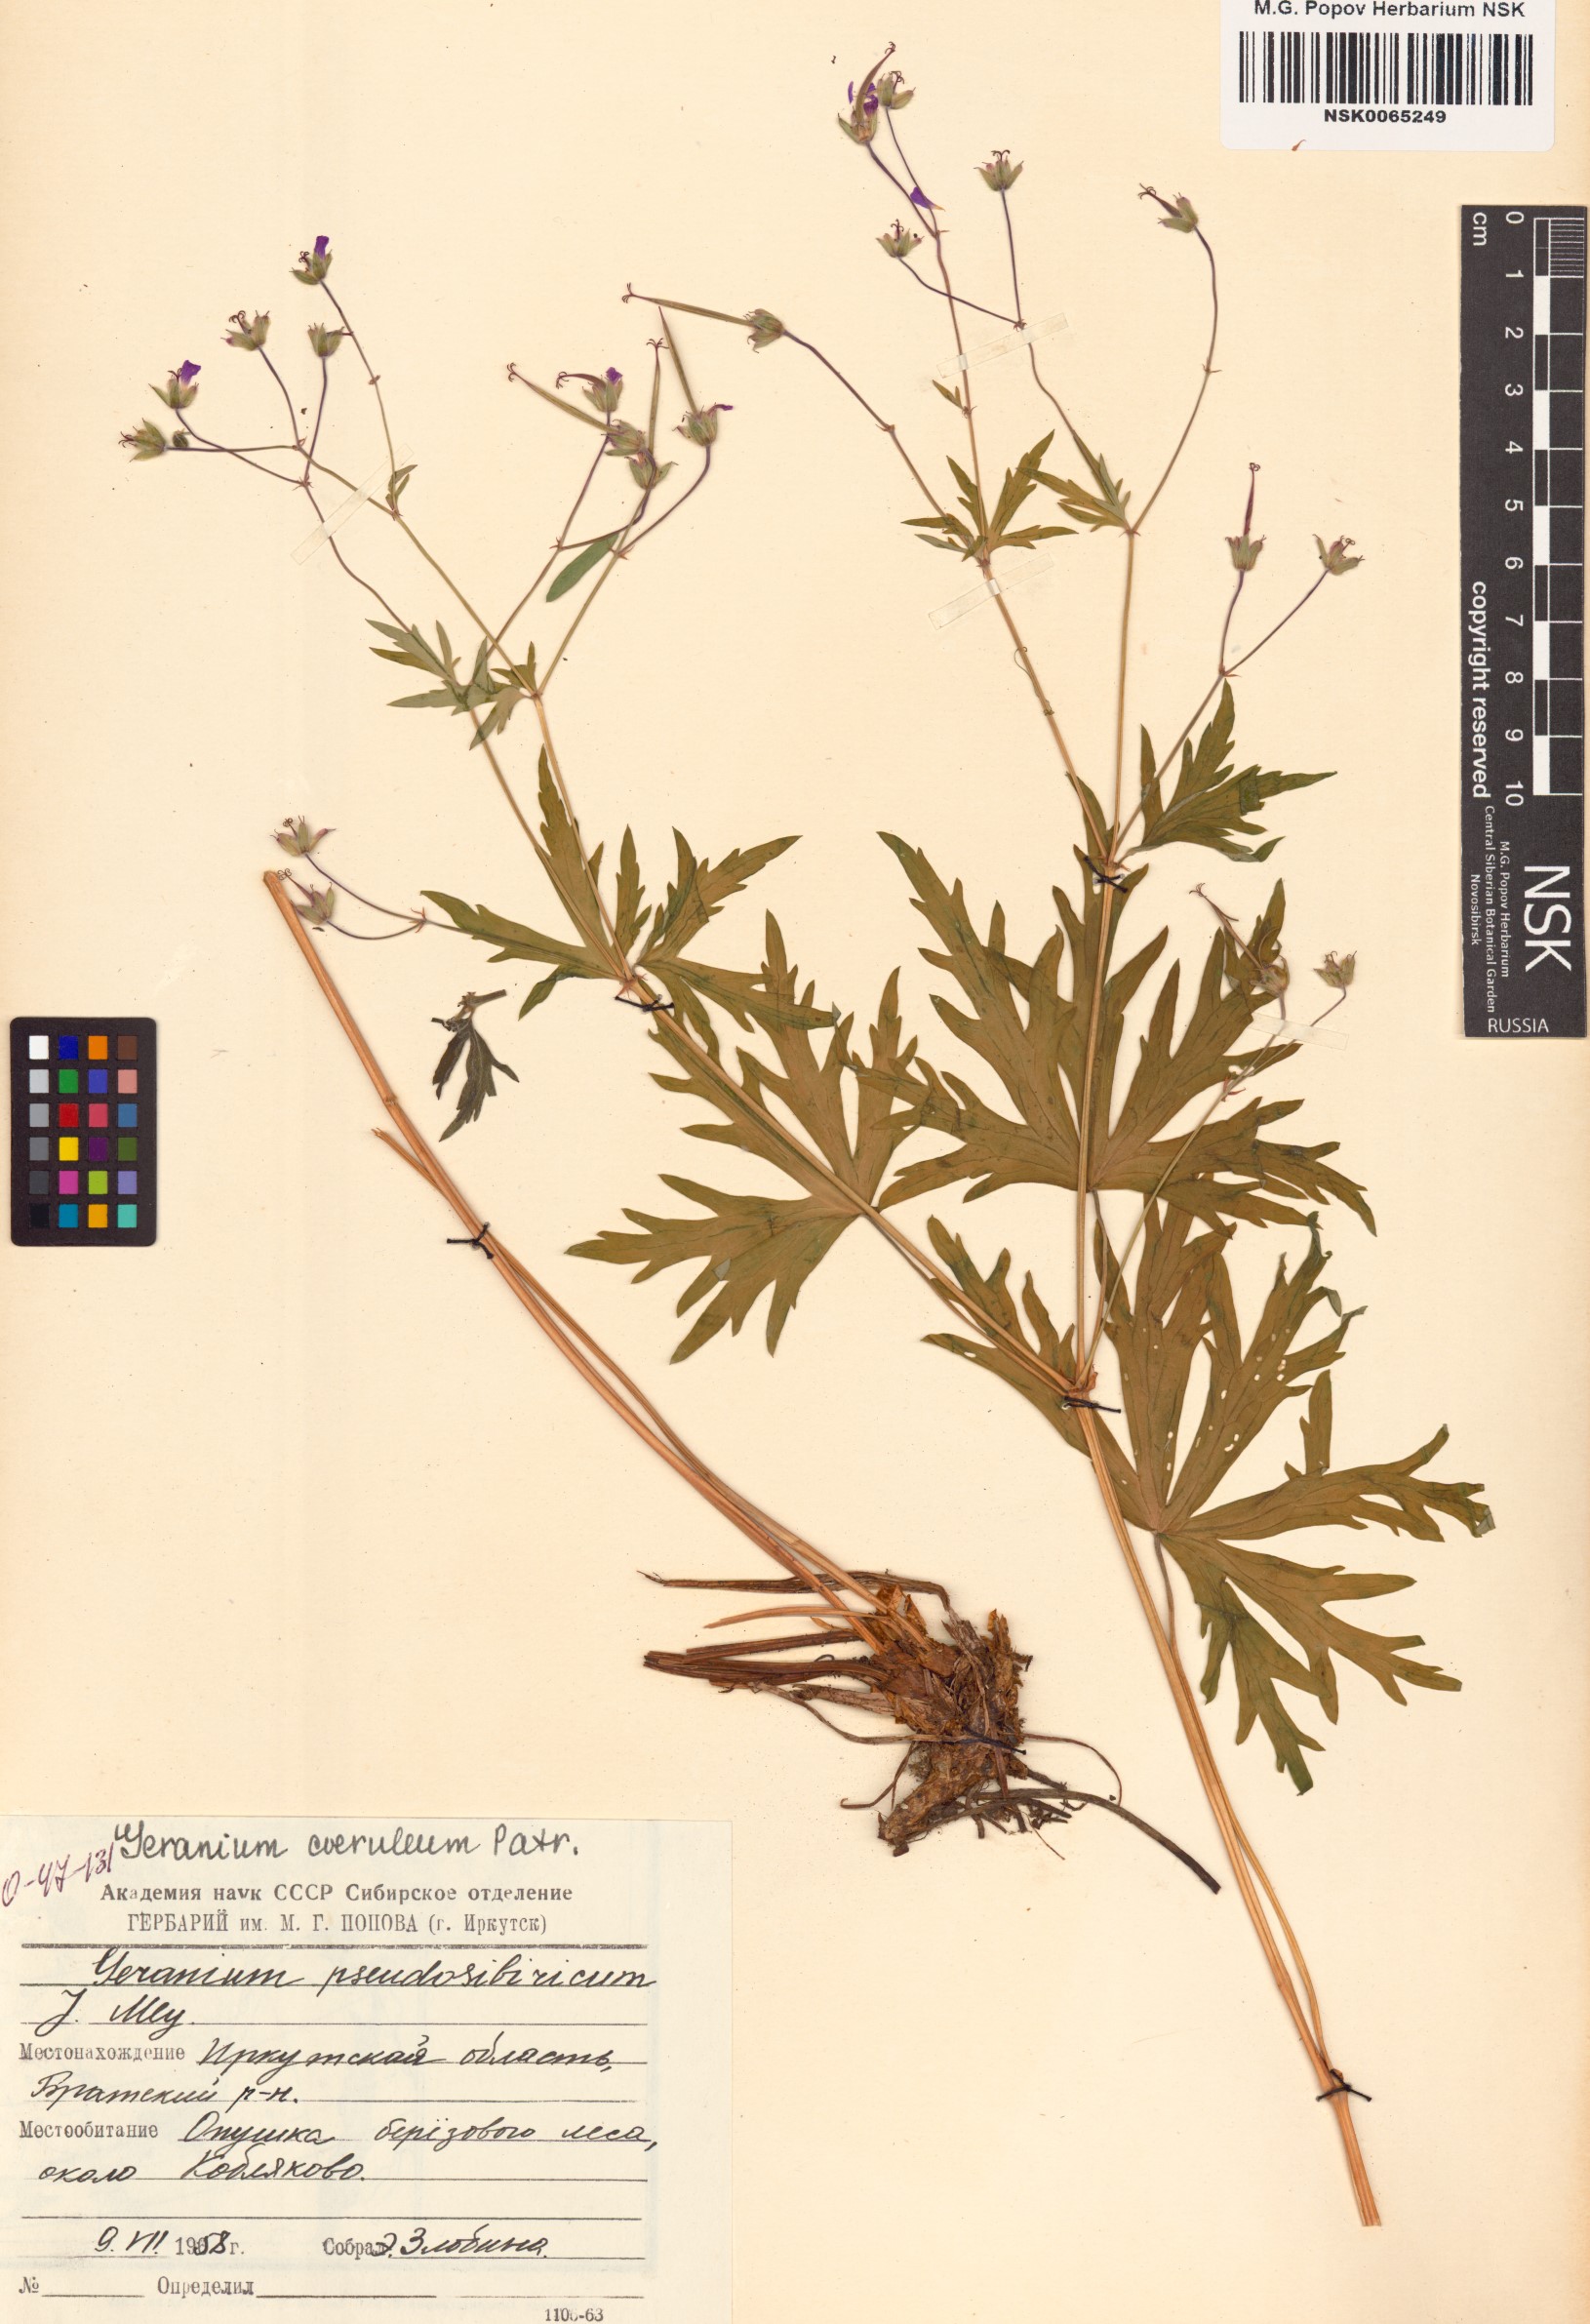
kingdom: Plantae
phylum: Tracheophyta
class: Magnoliopsida
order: Geraniales
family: Geraniaceae
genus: Geranium
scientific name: Geranium pseudosibiricum
